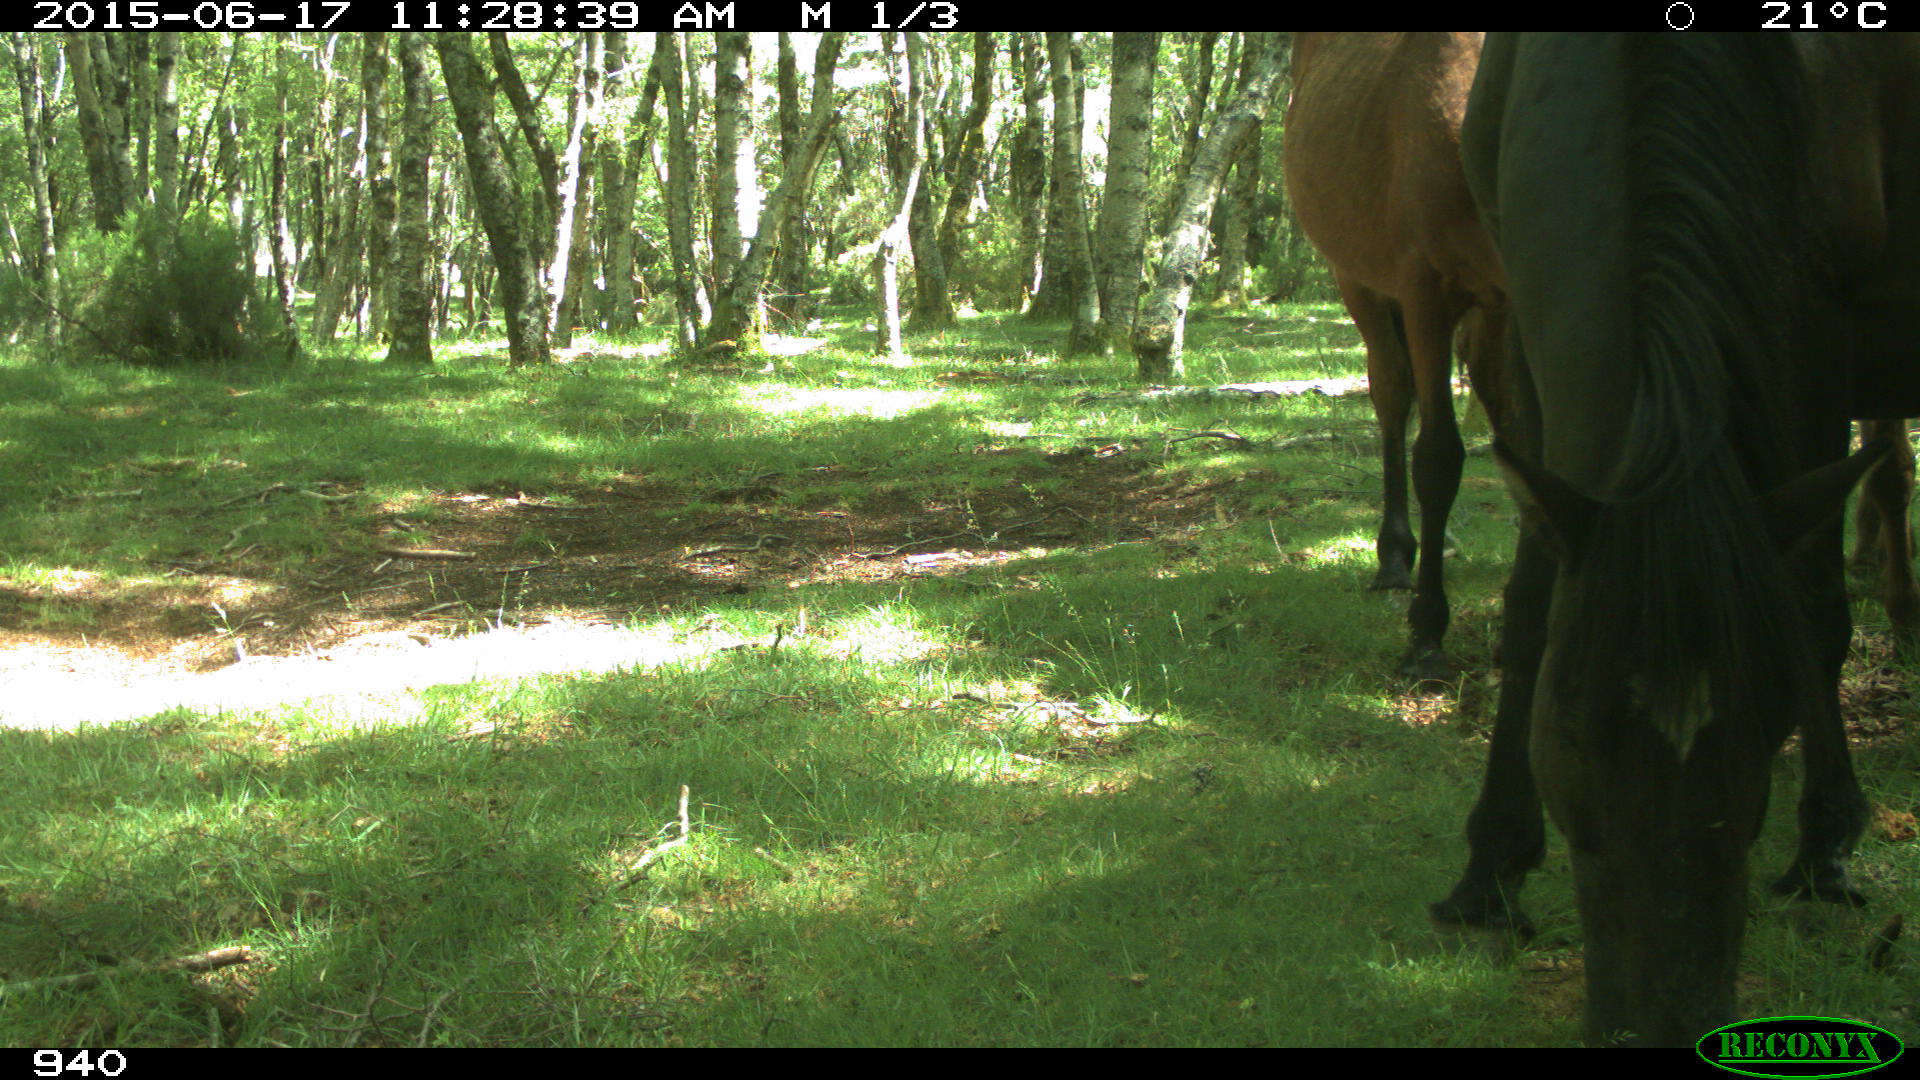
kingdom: Animalia
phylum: Chordata
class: Mammalia
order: Perissodactyla
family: Equidae
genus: Equus
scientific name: Equus caballus
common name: Horse
